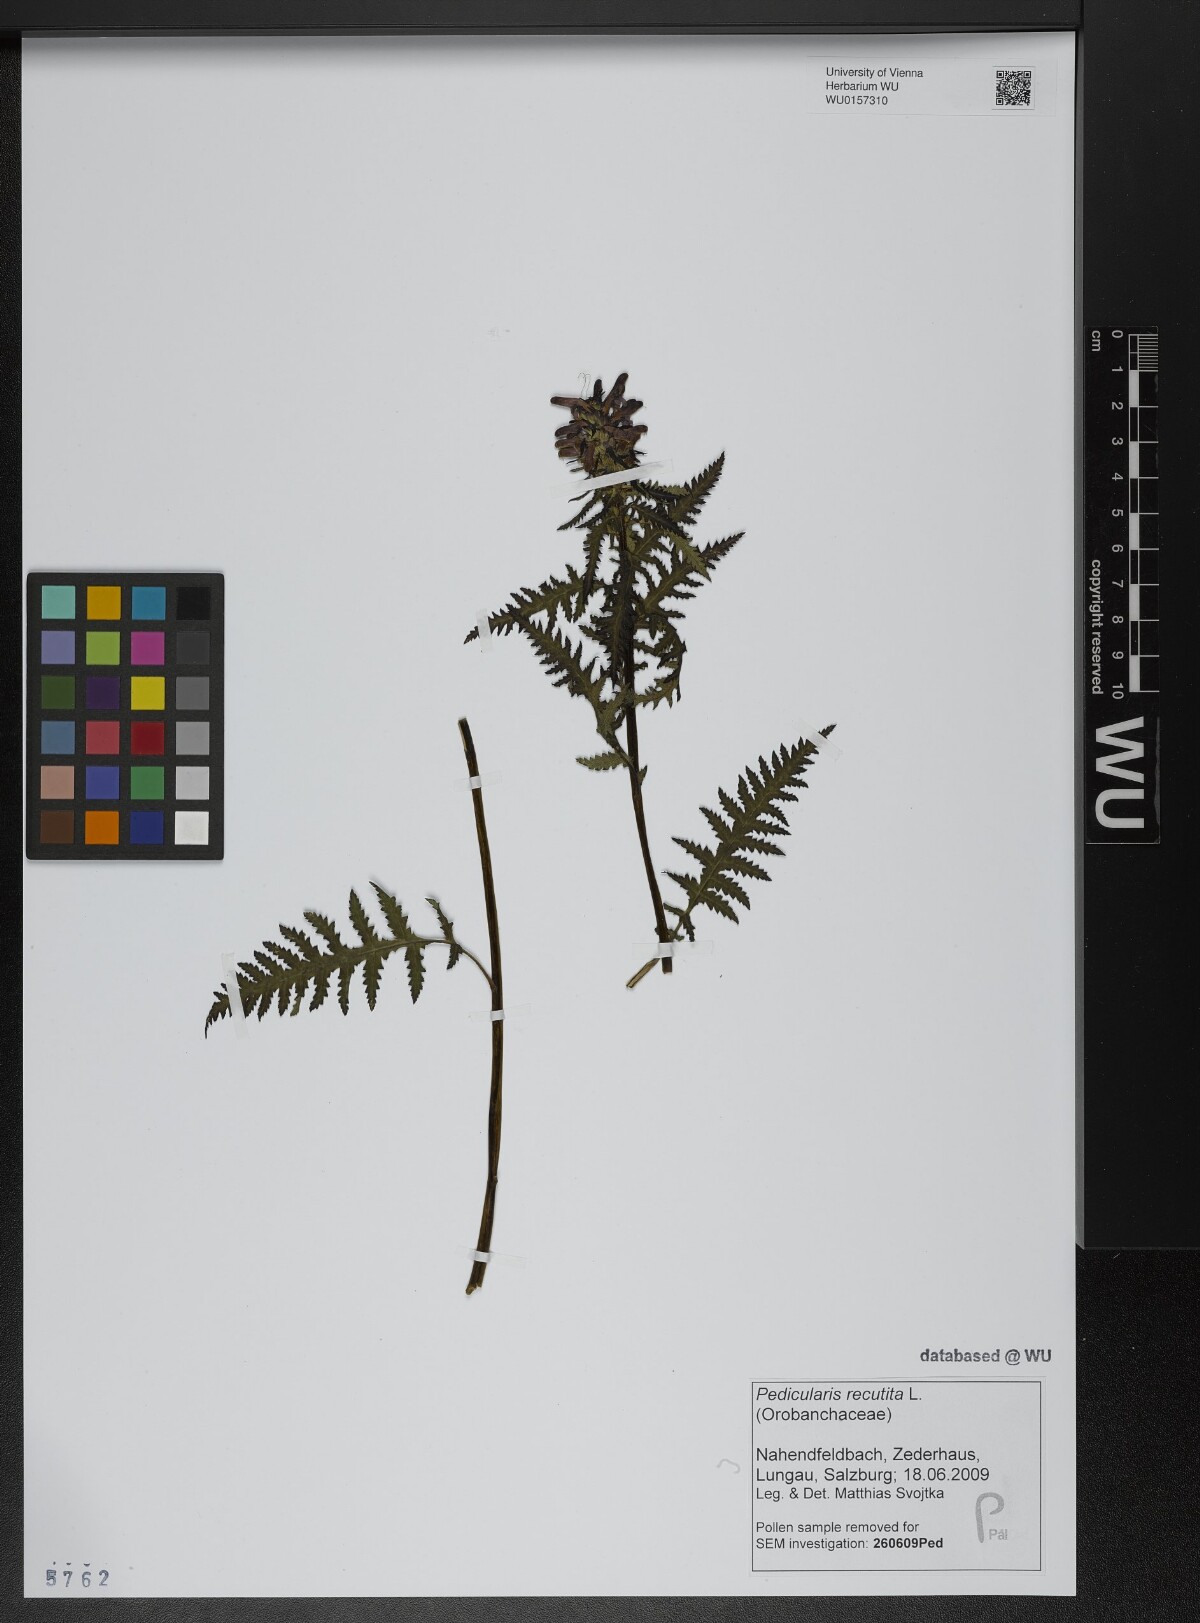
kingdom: Plantae
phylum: Tracheophyta
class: Magnoliopsida
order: Lamiales
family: Orobanchaceae
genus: Pedicularis
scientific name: Pedicularis recutita
